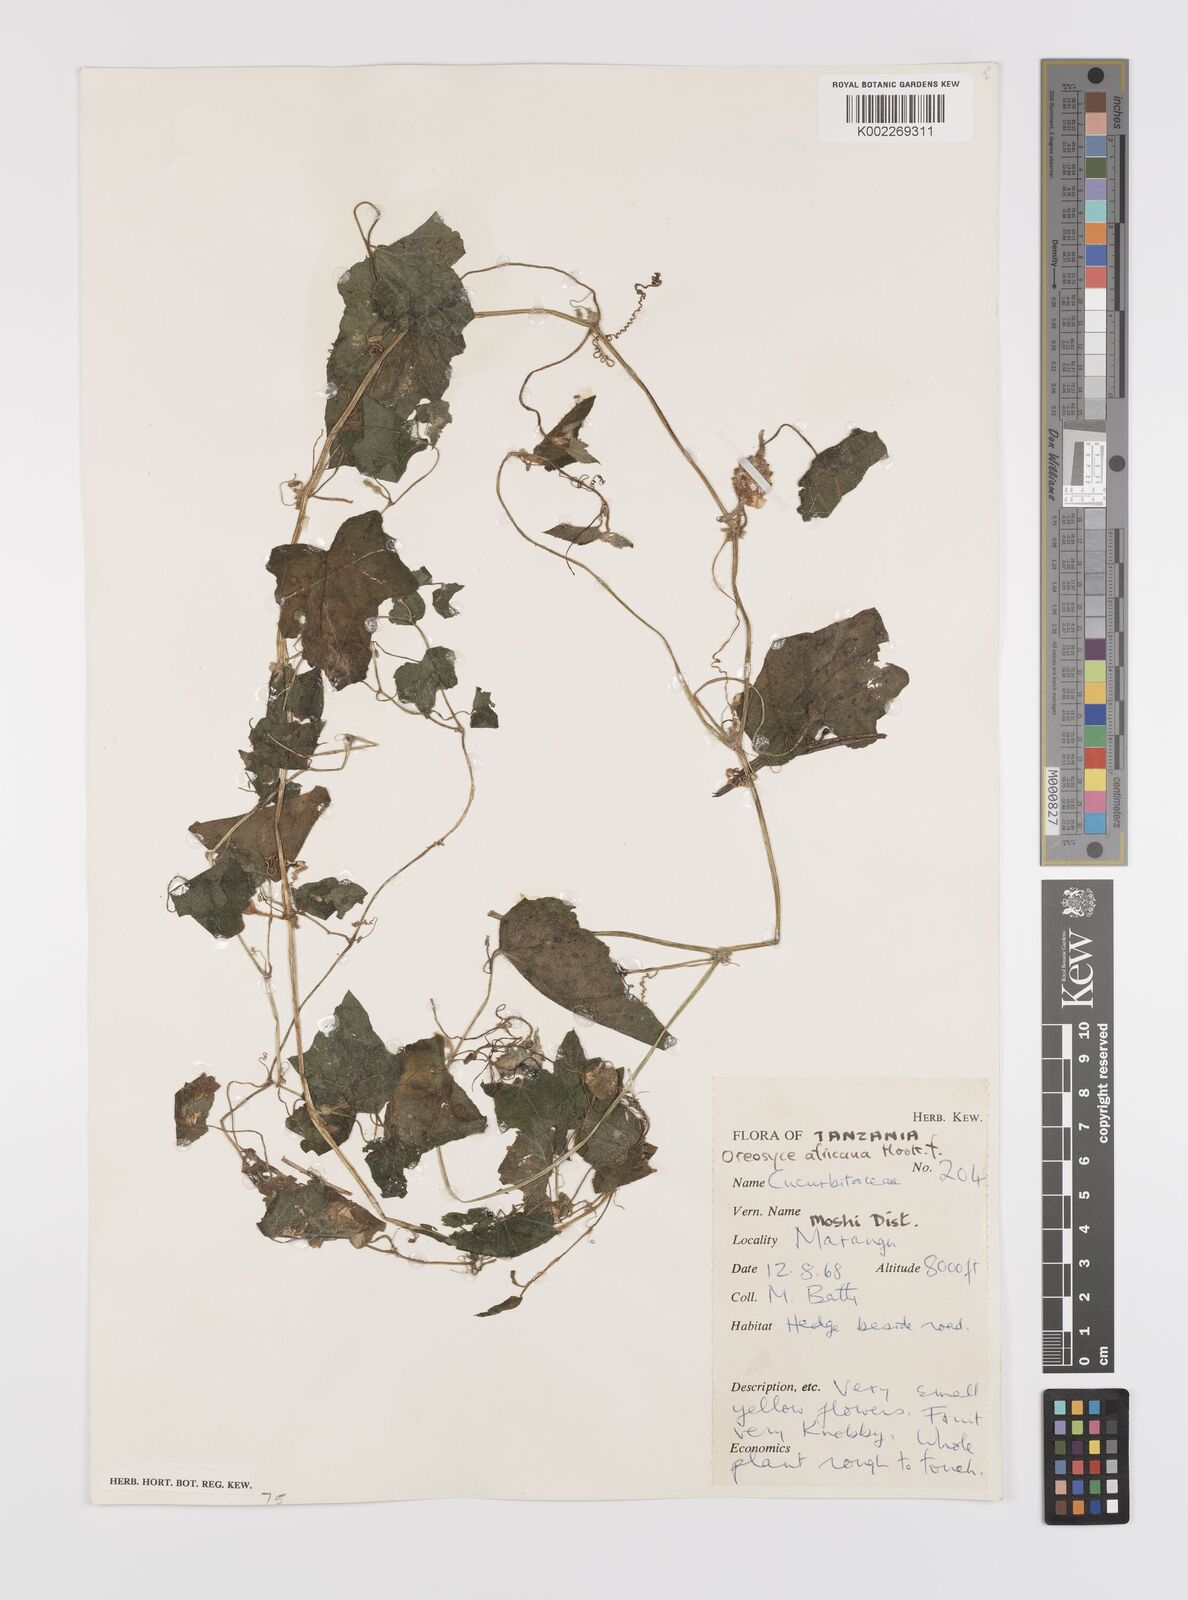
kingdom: Plantae
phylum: Tracheophyta
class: Magnoliopsida
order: Cucurbitales
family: Cucurbitaceae
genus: Cucumis
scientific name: Cucumis oreosyce
